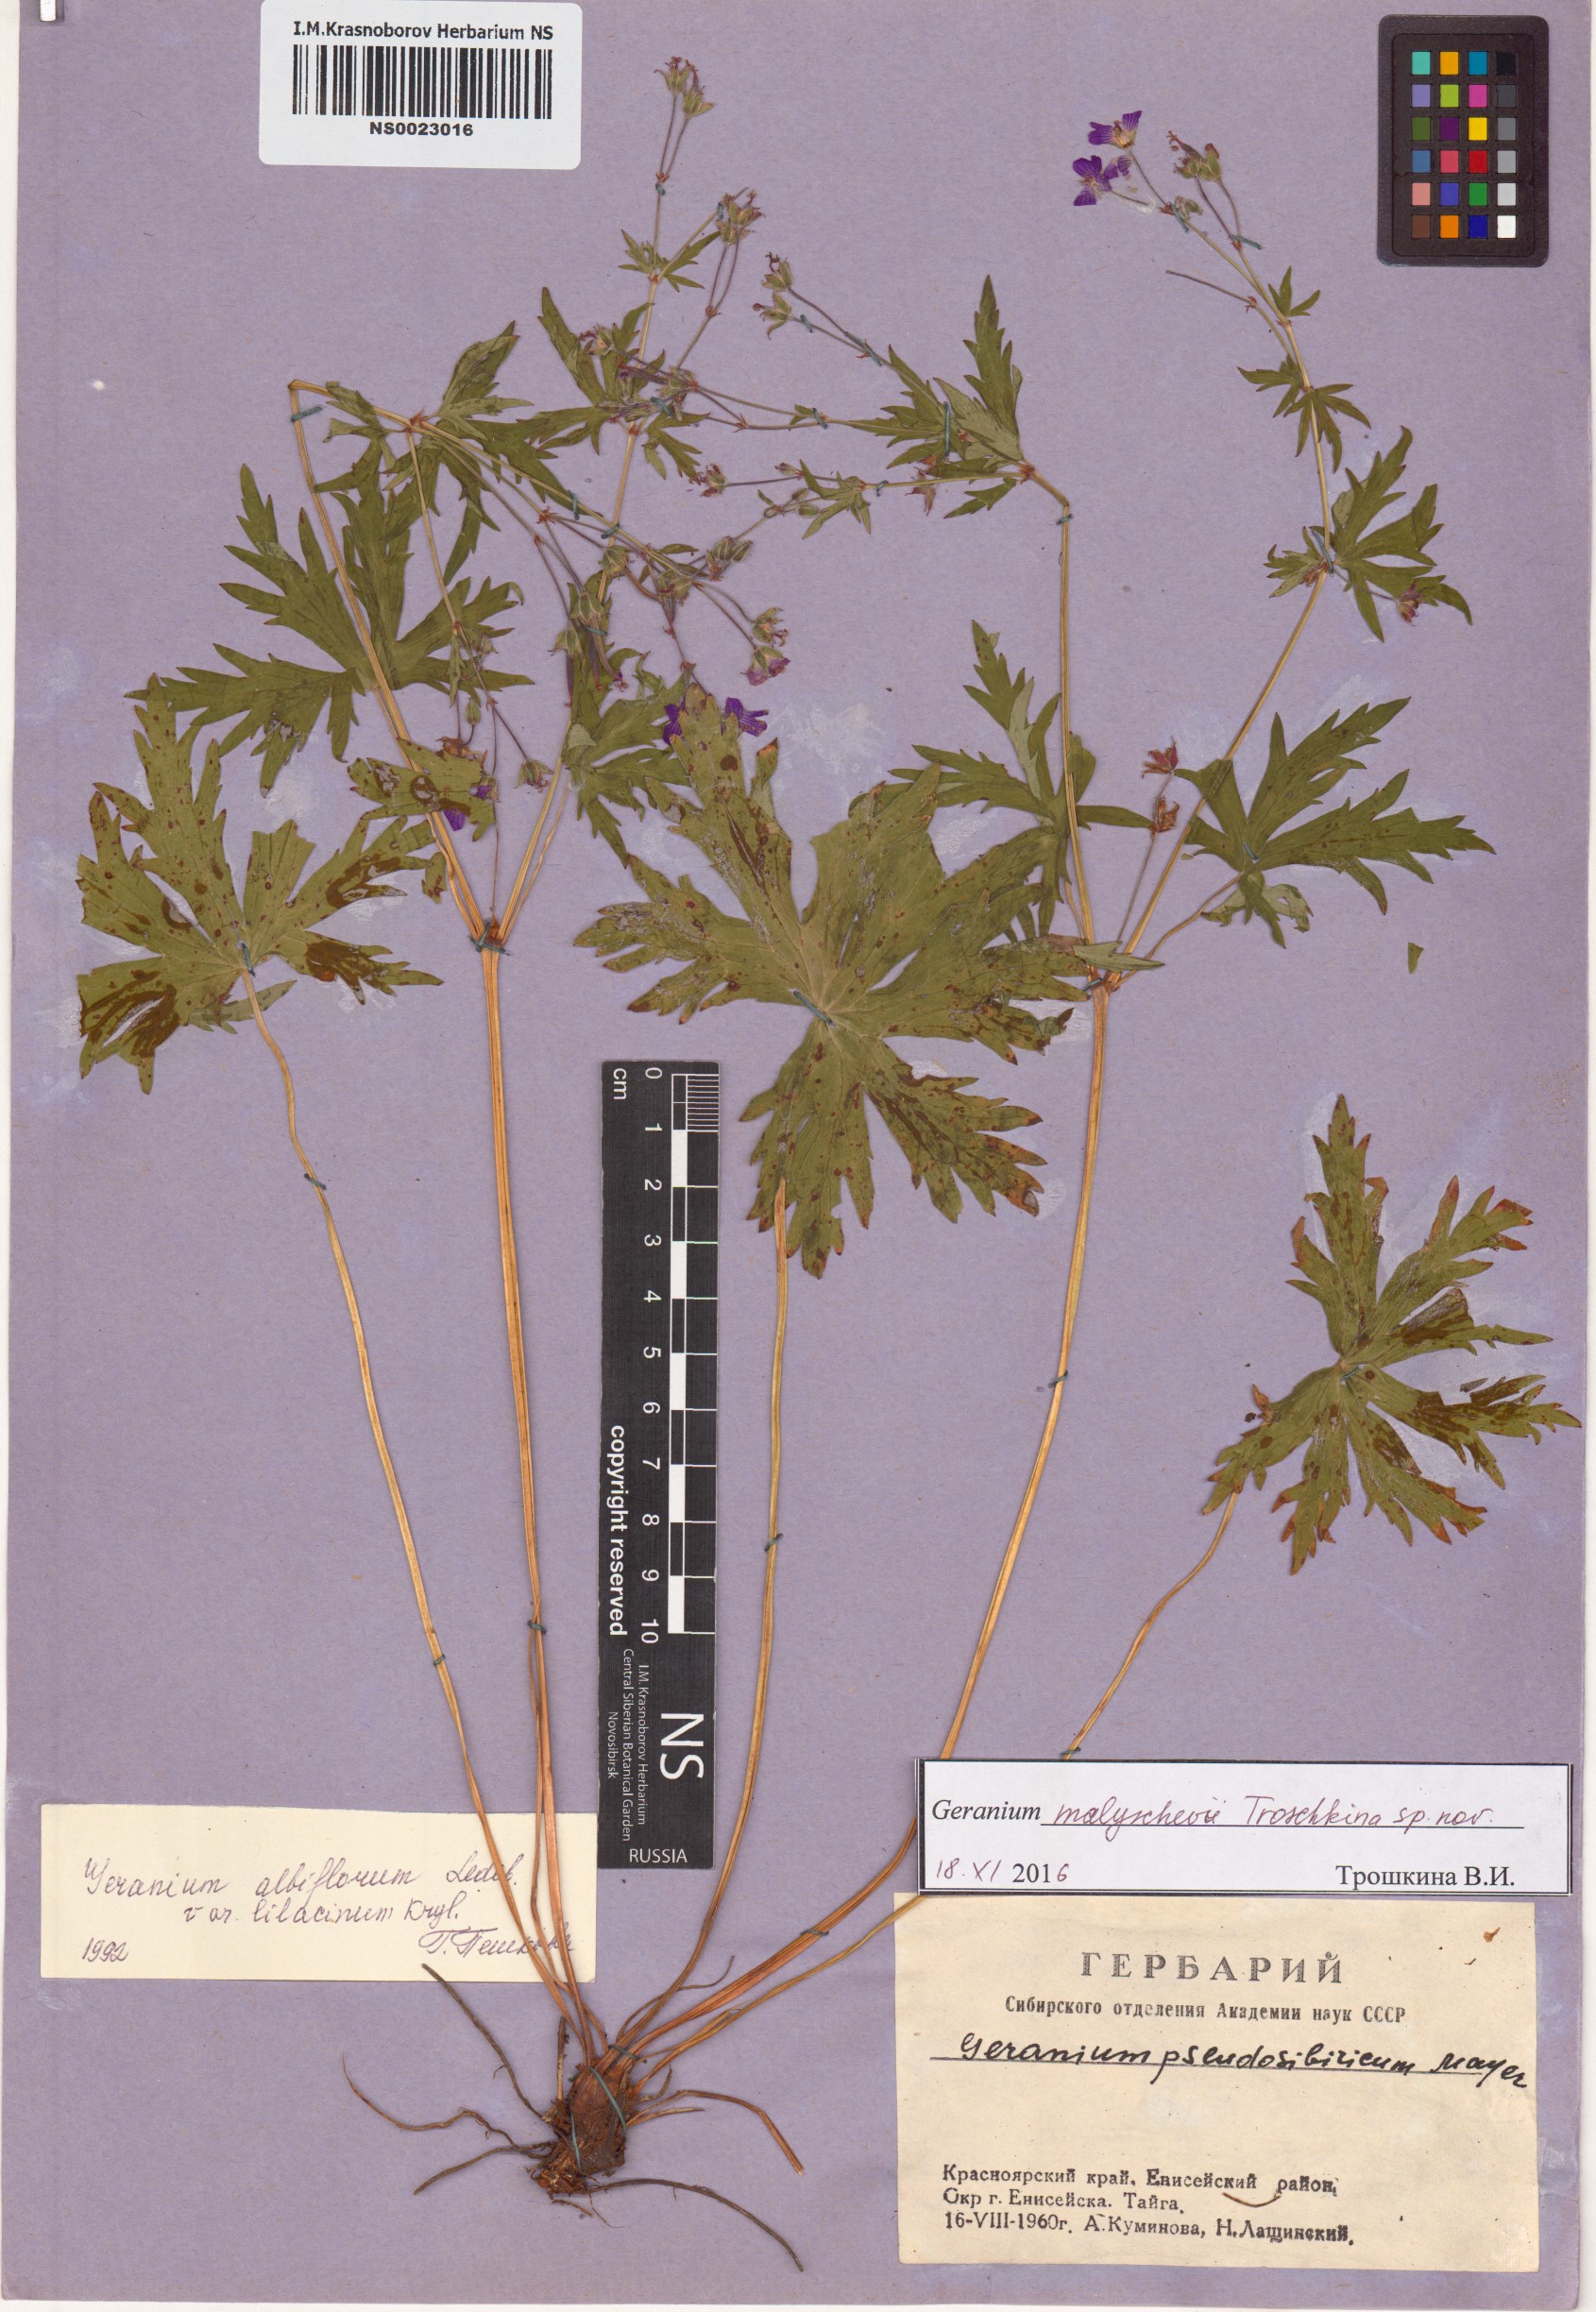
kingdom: Plantae
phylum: Tracheophyta
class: Magnoliopsida
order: Geraniales
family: Geraniaceae
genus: Geranium
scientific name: Geranium malyschevii
